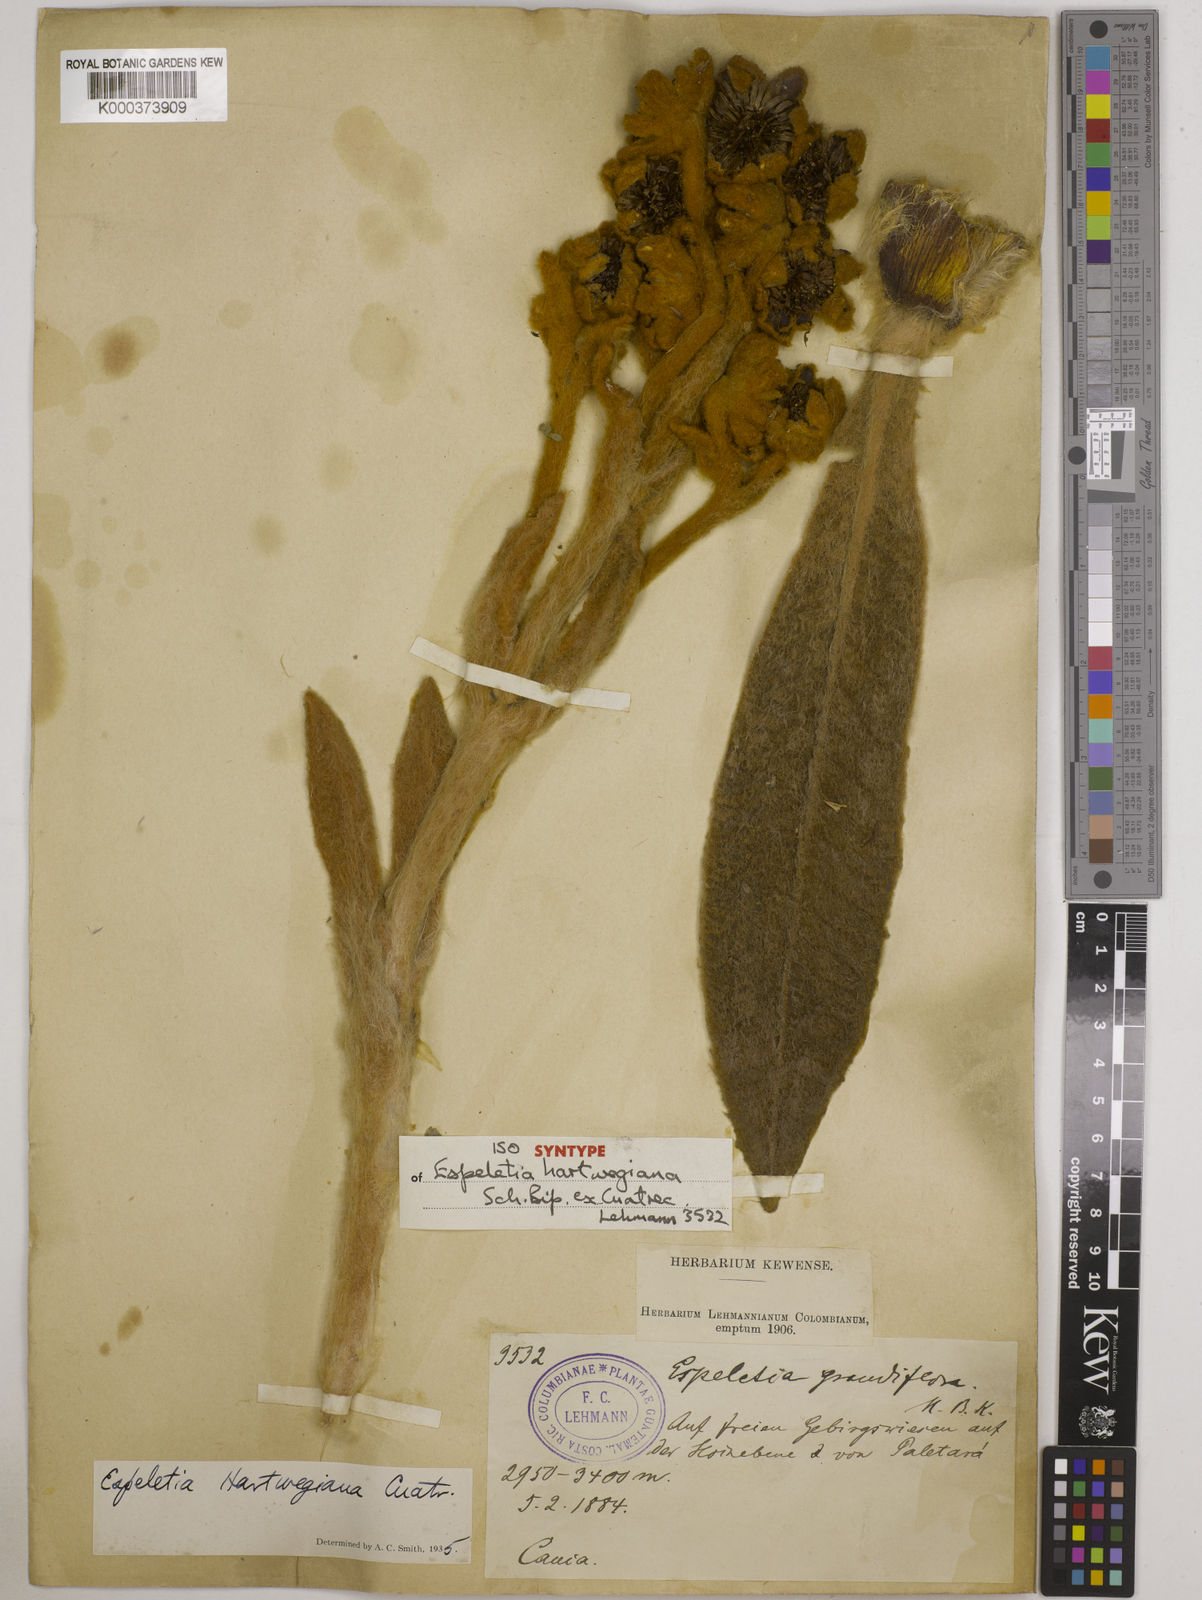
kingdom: Plantae
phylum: Tracheophyta
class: Magnoliopsida
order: Asterales
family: Asteraceae
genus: Espeletia
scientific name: Espeletia hartwegiana
